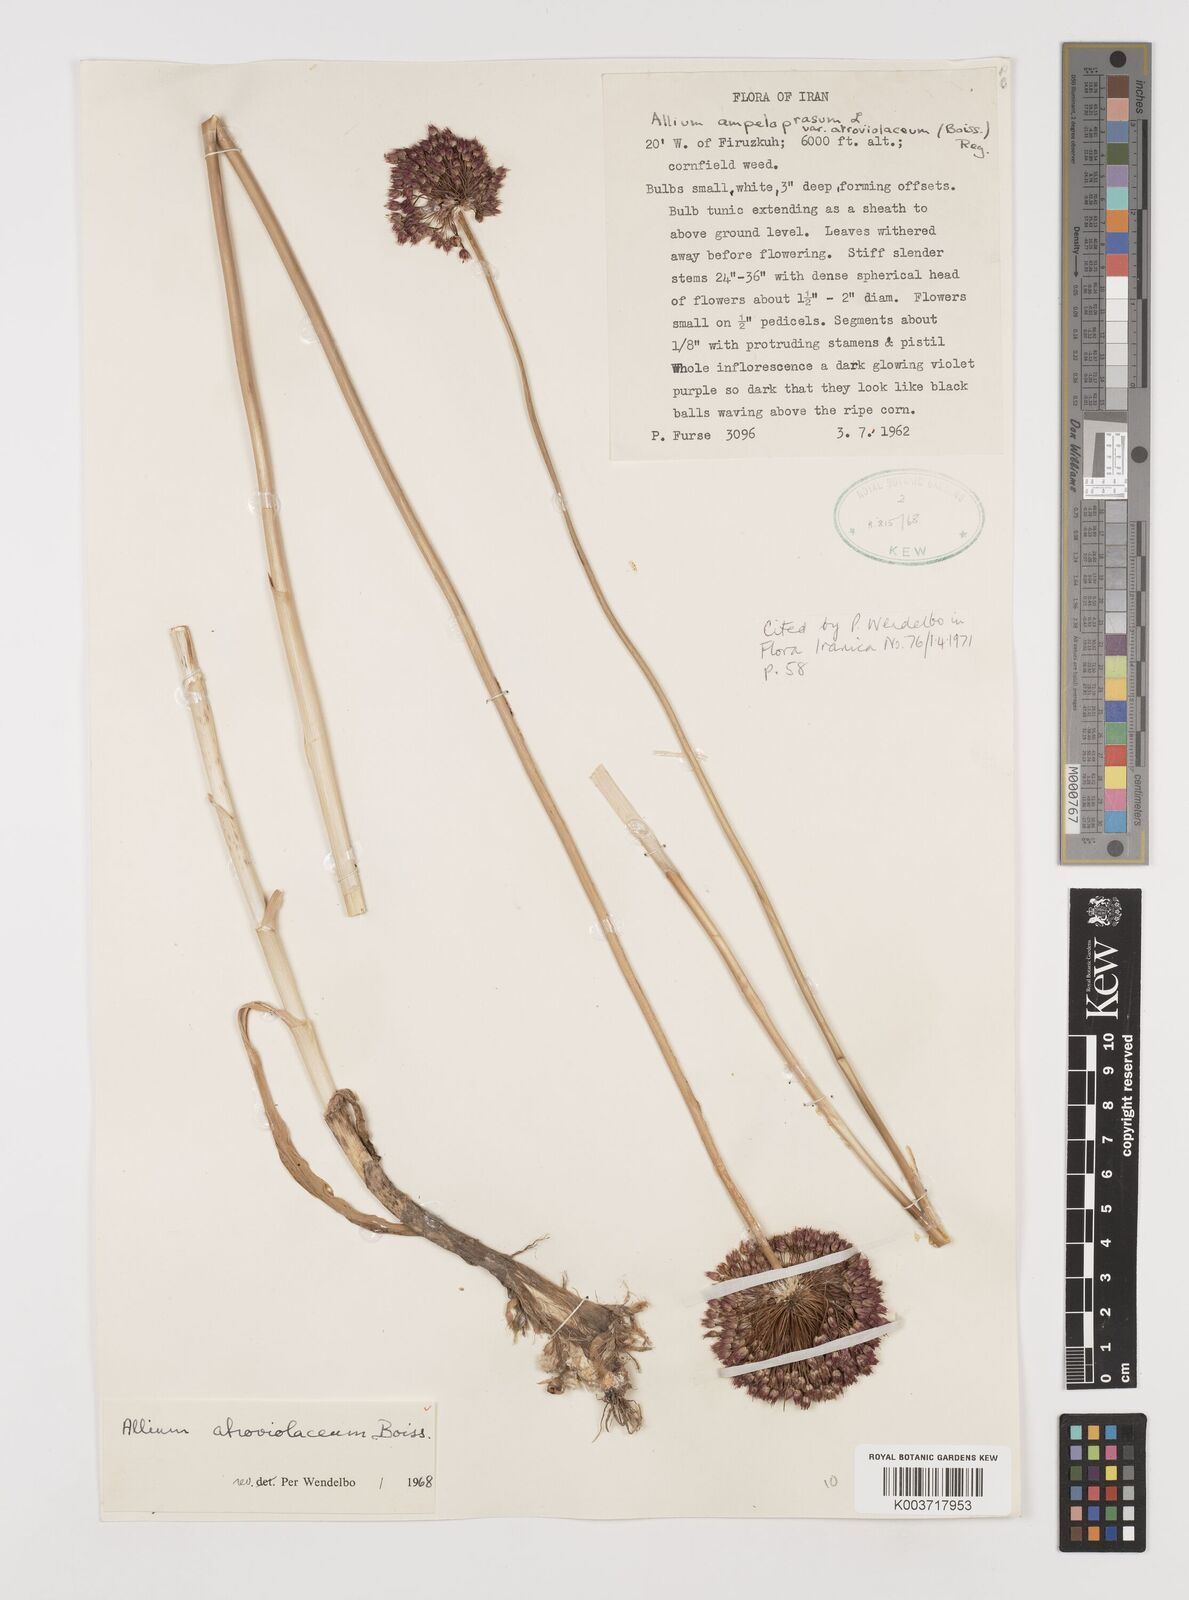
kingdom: Plantae
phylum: Tracheophyta
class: Liliopsida
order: Asparagales
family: Amaryllidaceae
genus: Allium
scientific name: Allium atroviolaceum
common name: Broadleaf wild leek
